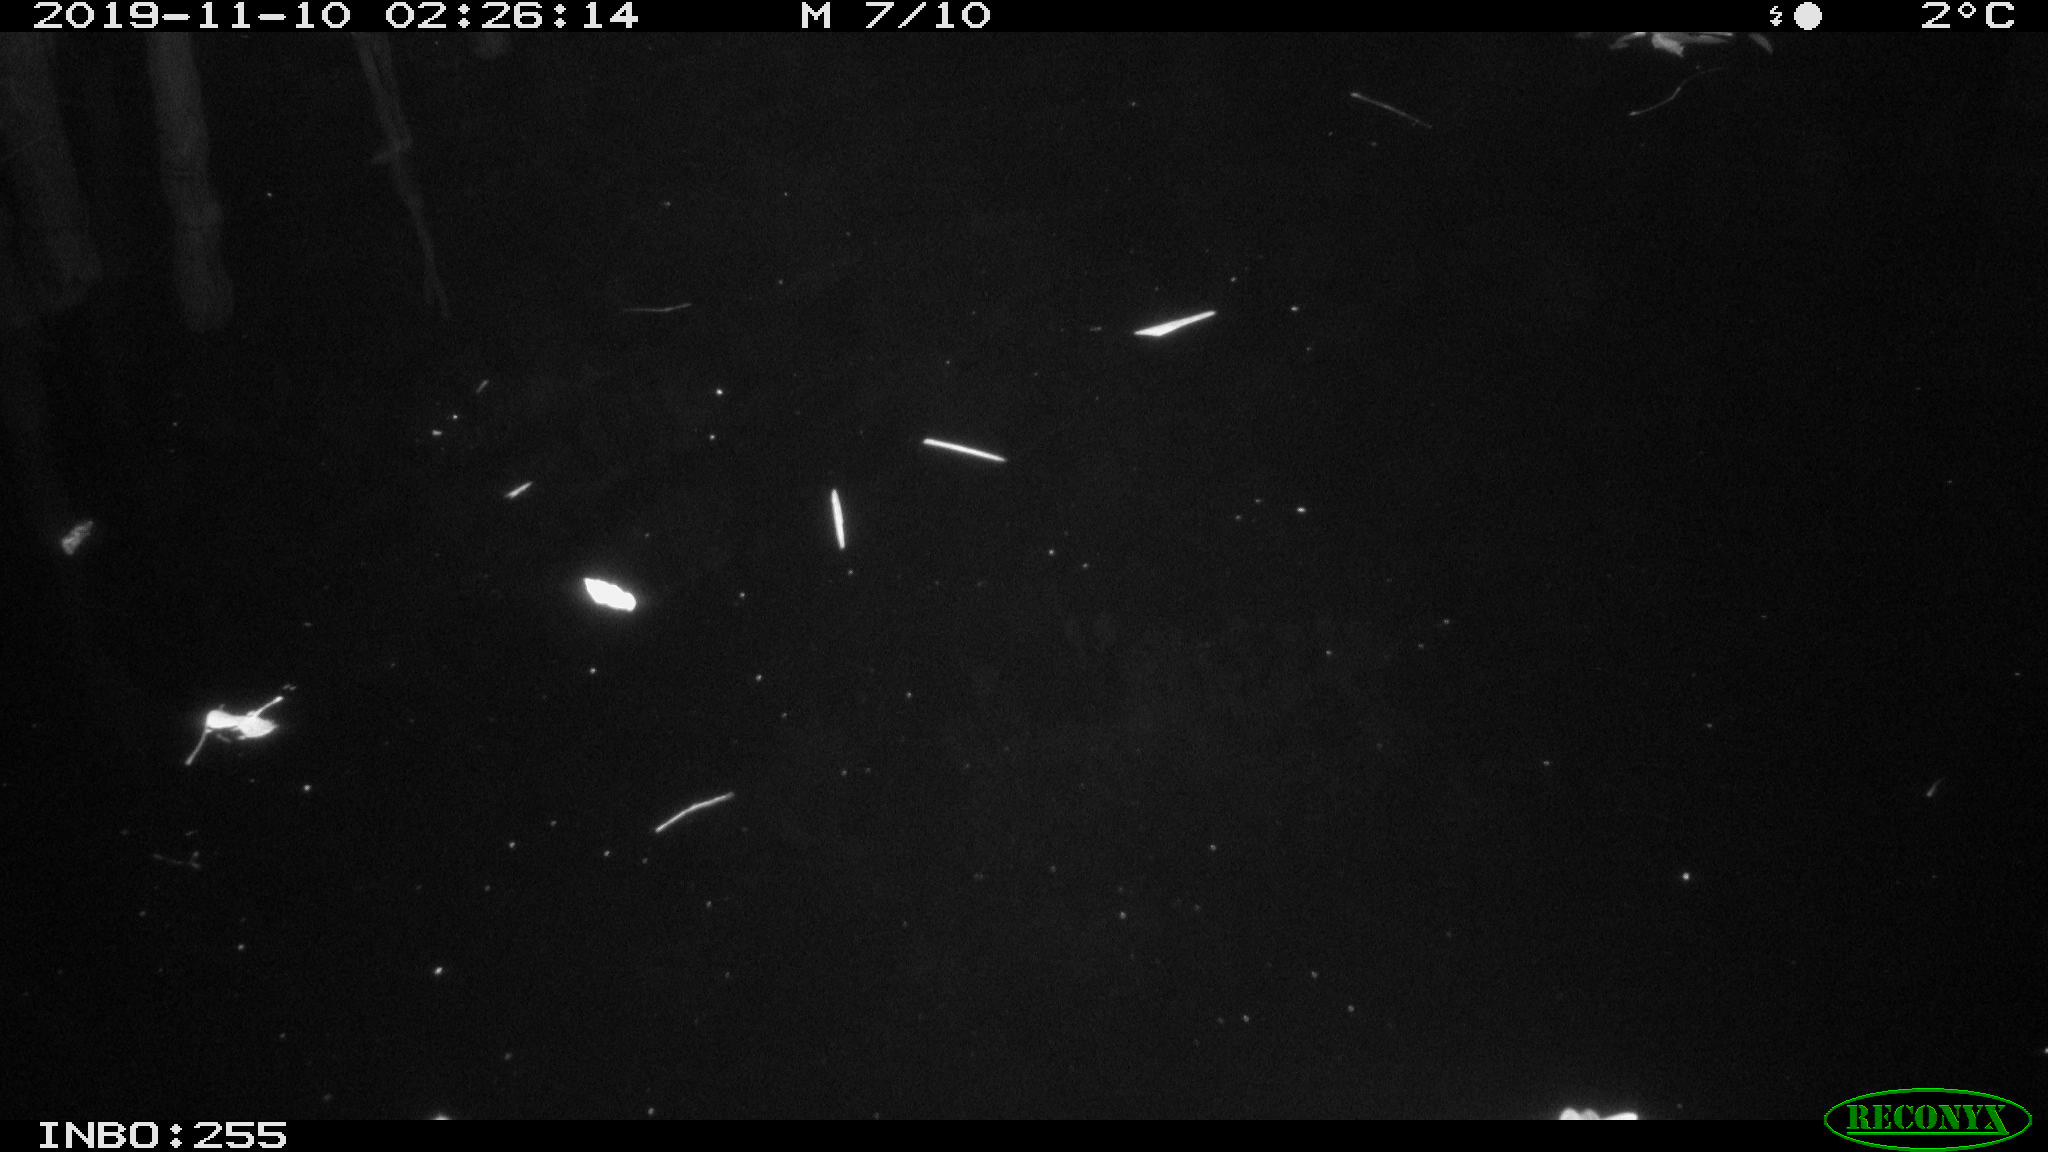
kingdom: Animalia
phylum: Chordata
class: Aves
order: Anseriformes
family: Anatidae
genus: Anas
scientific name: Anas platyrhynchos
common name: Mallard
